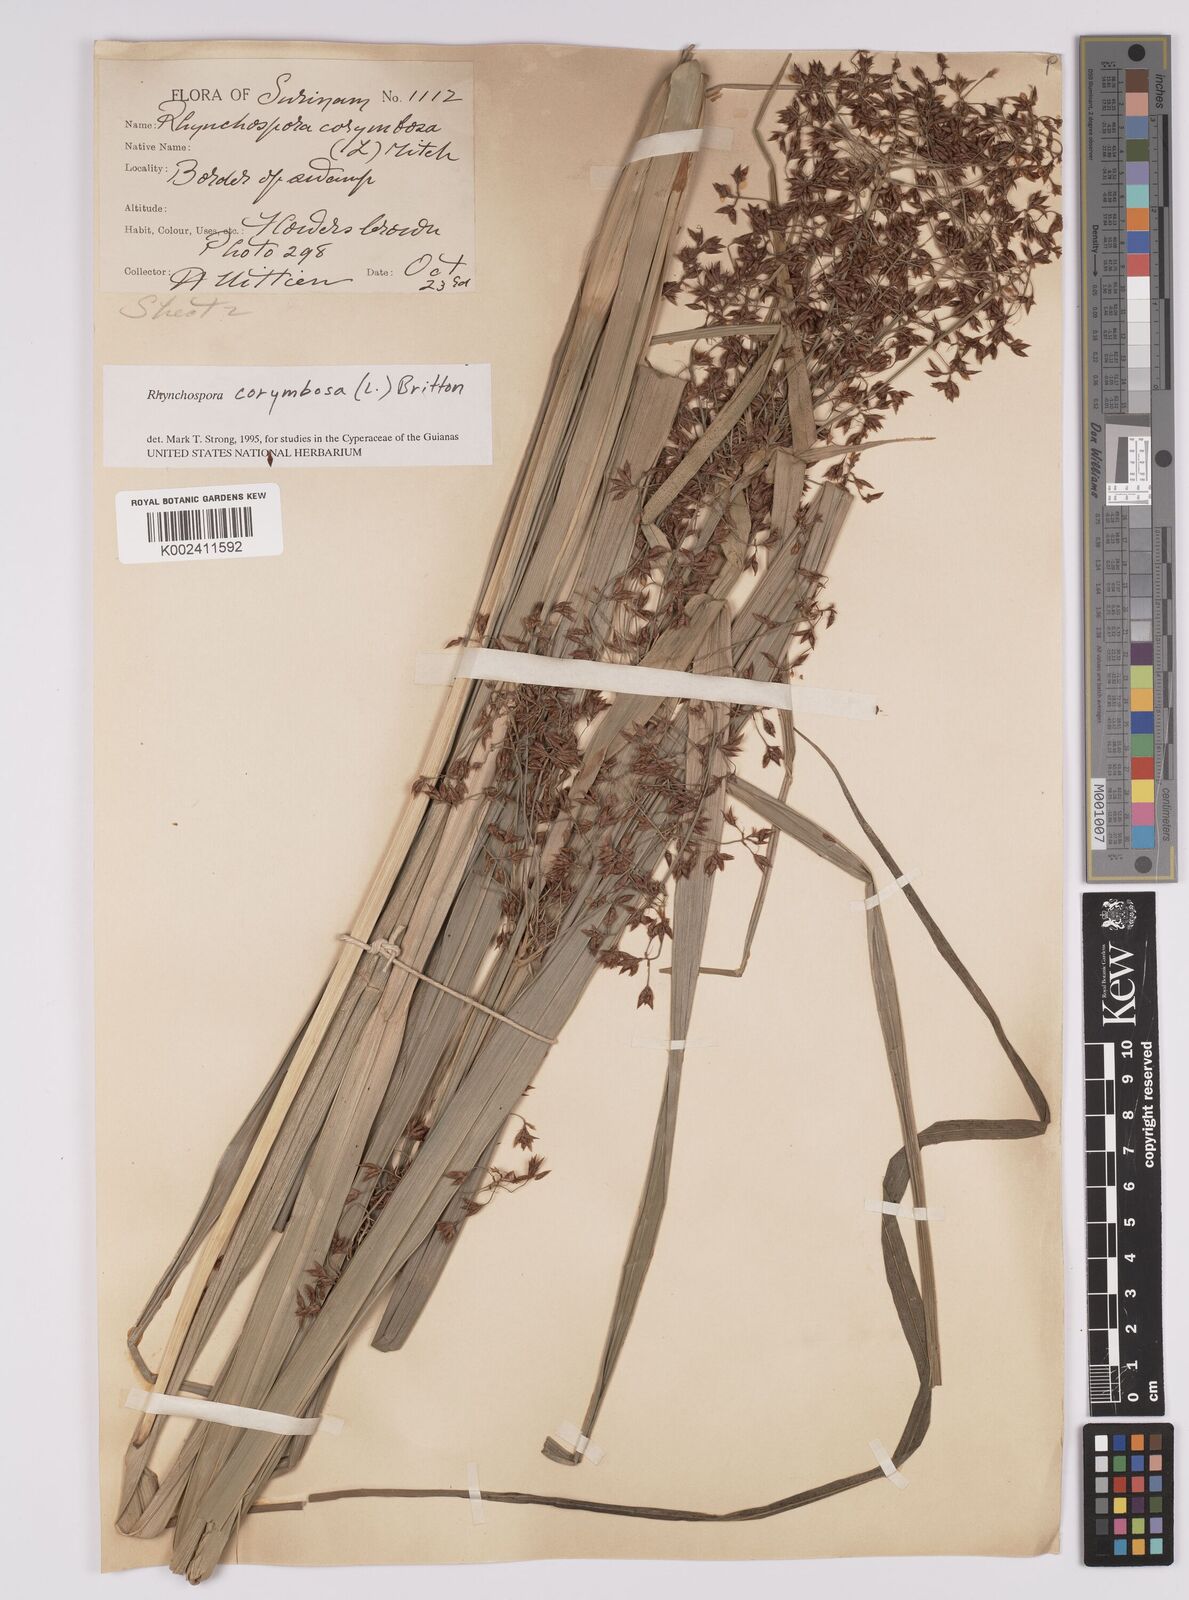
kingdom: Plantae
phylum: Tracheophyta
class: Liliopsida
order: Poales
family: Cyperaceae
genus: Rhynchospora
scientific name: Rhynchospora corymbosa
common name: Golden beak sedge
